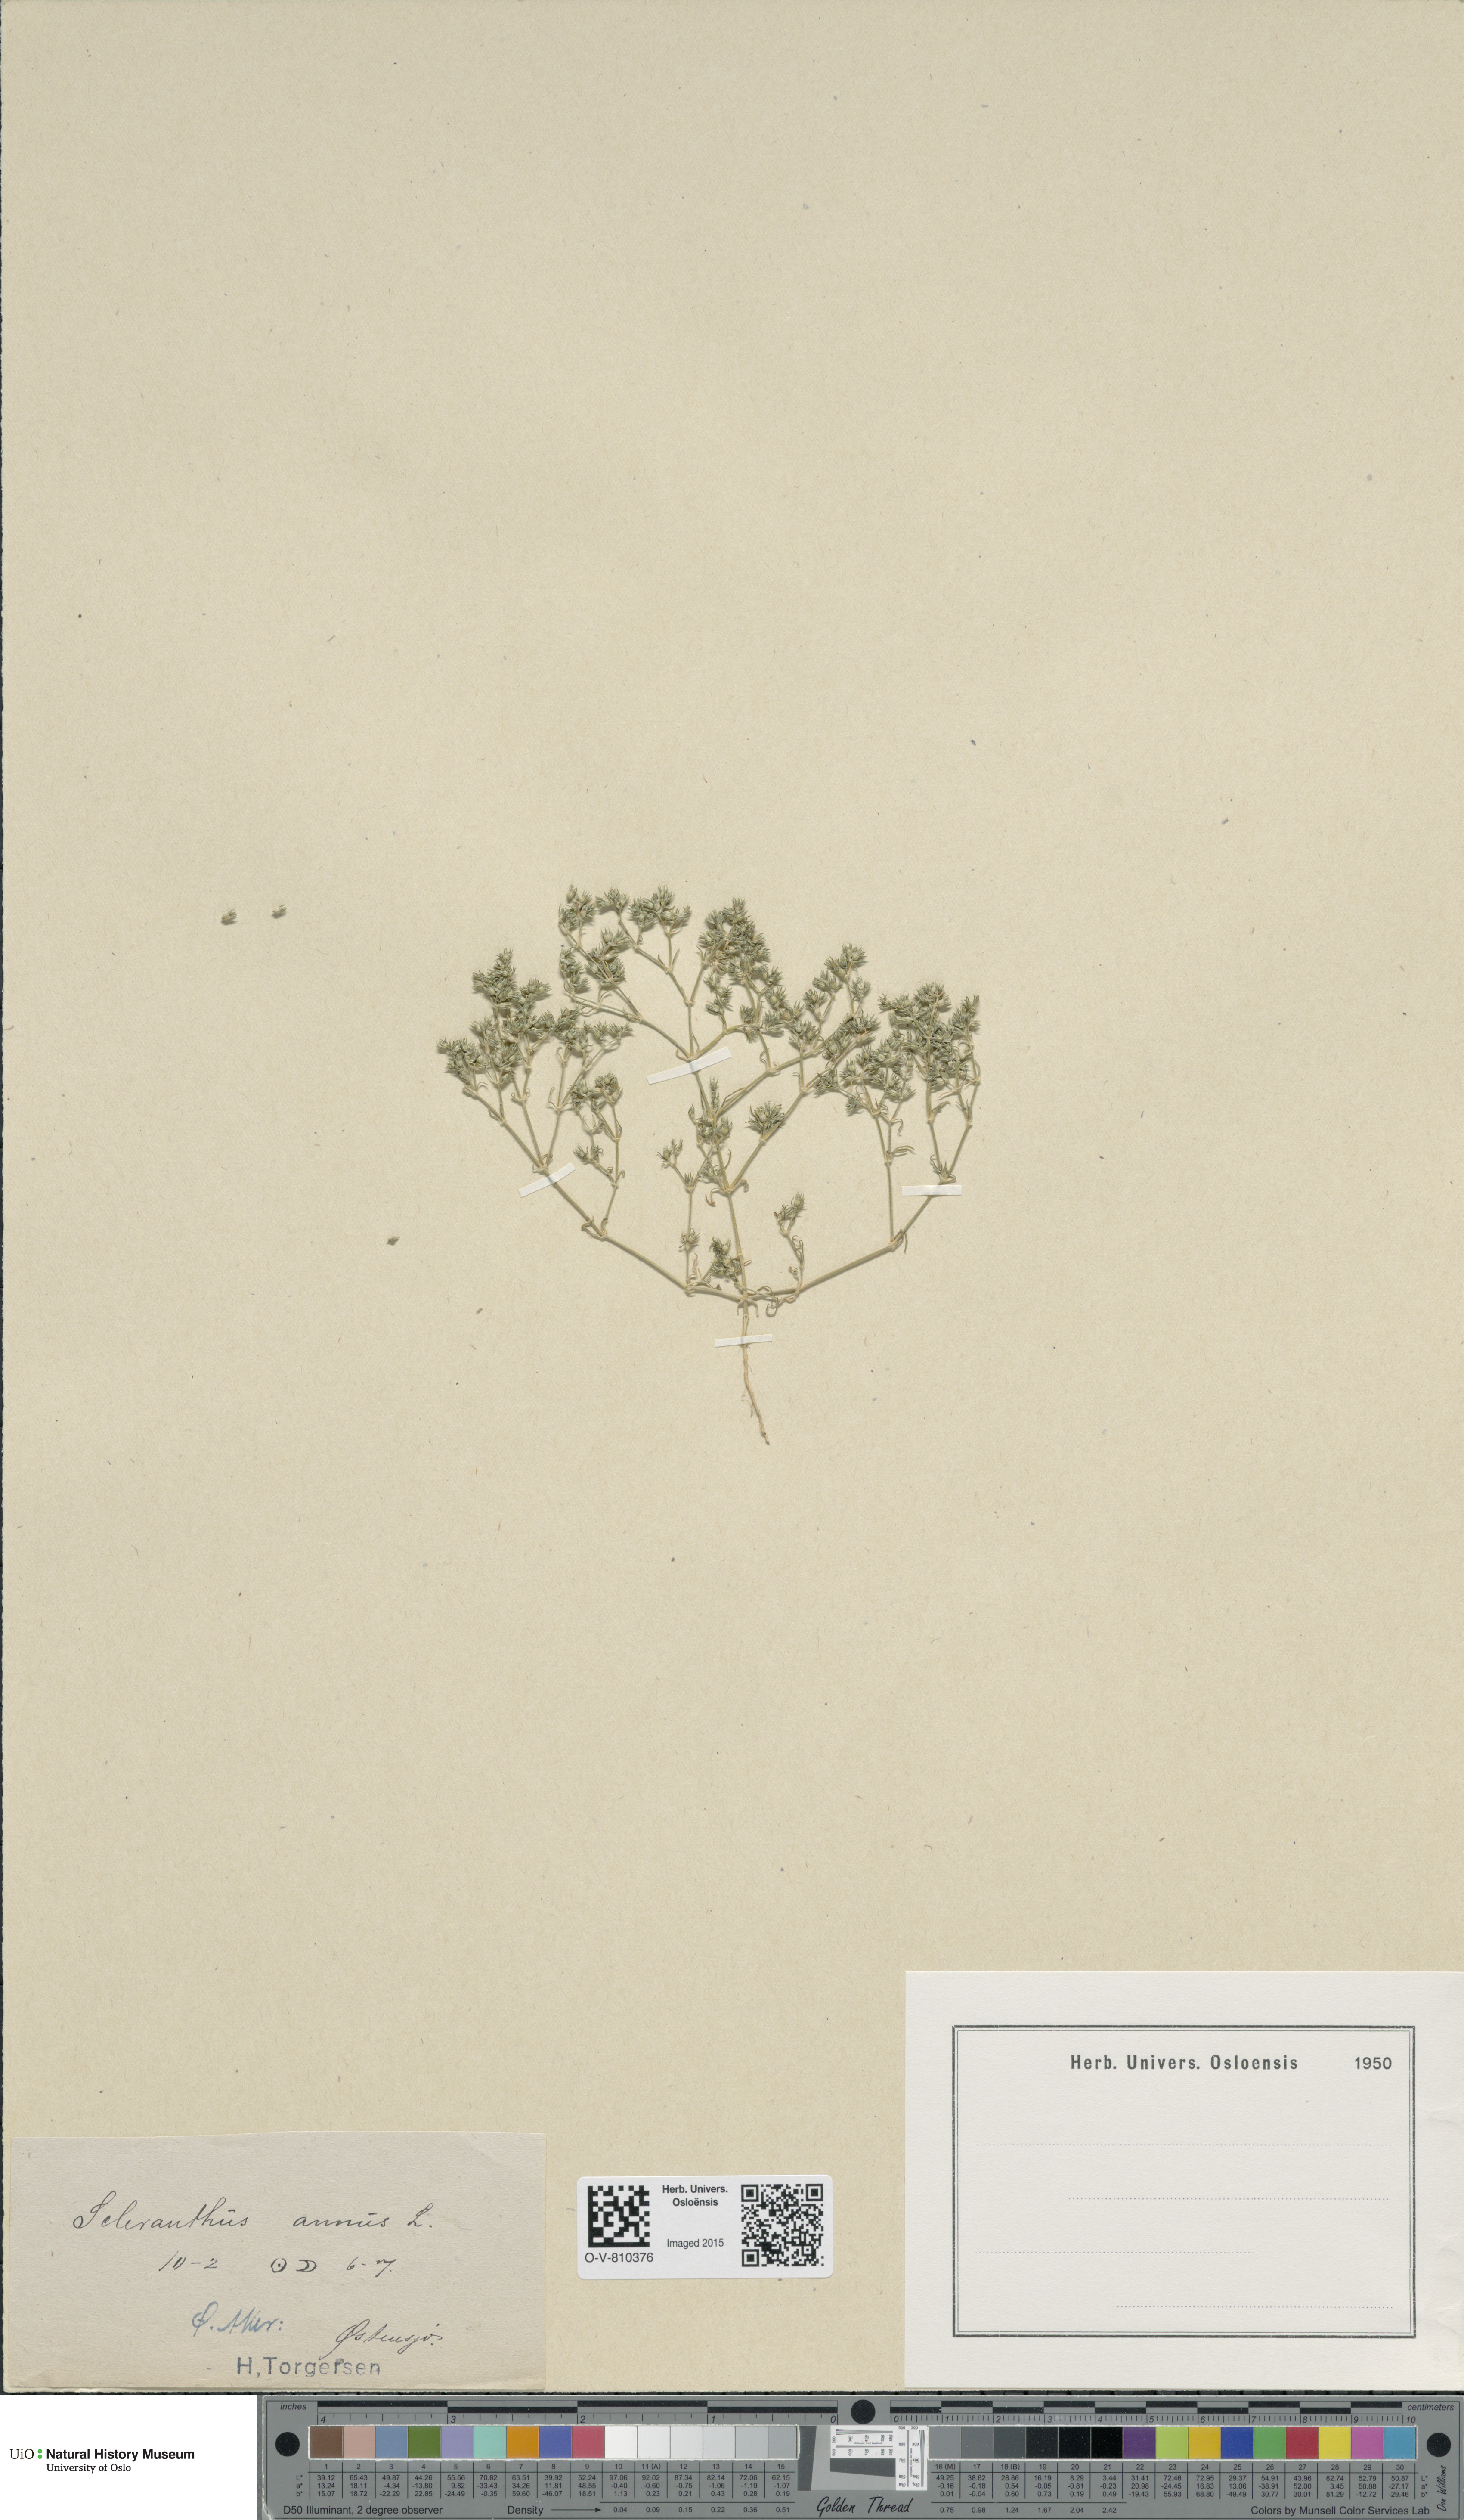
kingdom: Plantae
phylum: Tracheophyta
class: Magnoliopsida
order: Caryophyllales
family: Caryophyllaceae
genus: Scleranthus
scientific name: Scleranthus annuus
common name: Annual knawel
